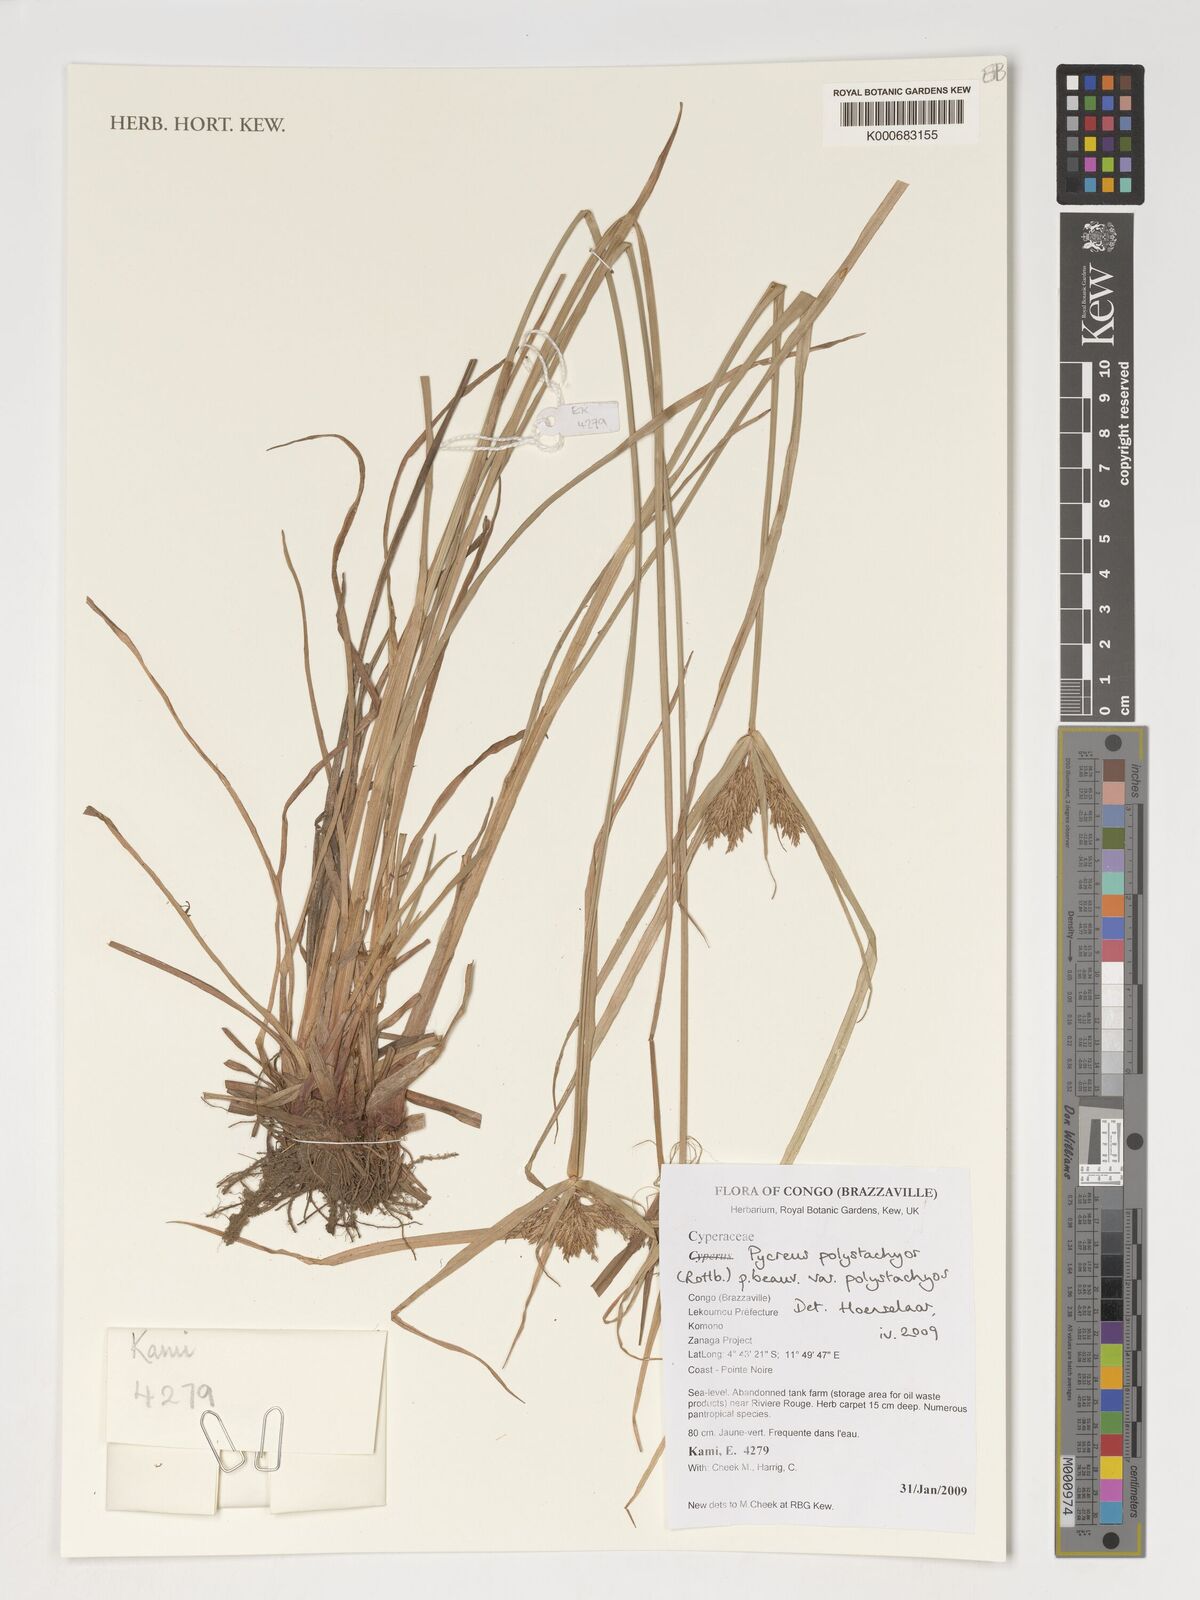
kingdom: Plantae
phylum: Tracheophyta
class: Liliopsida
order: Poales
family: Cyperaceae
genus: Cyperus
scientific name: Cyperus polystachyos
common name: Bunchy flat sedge
